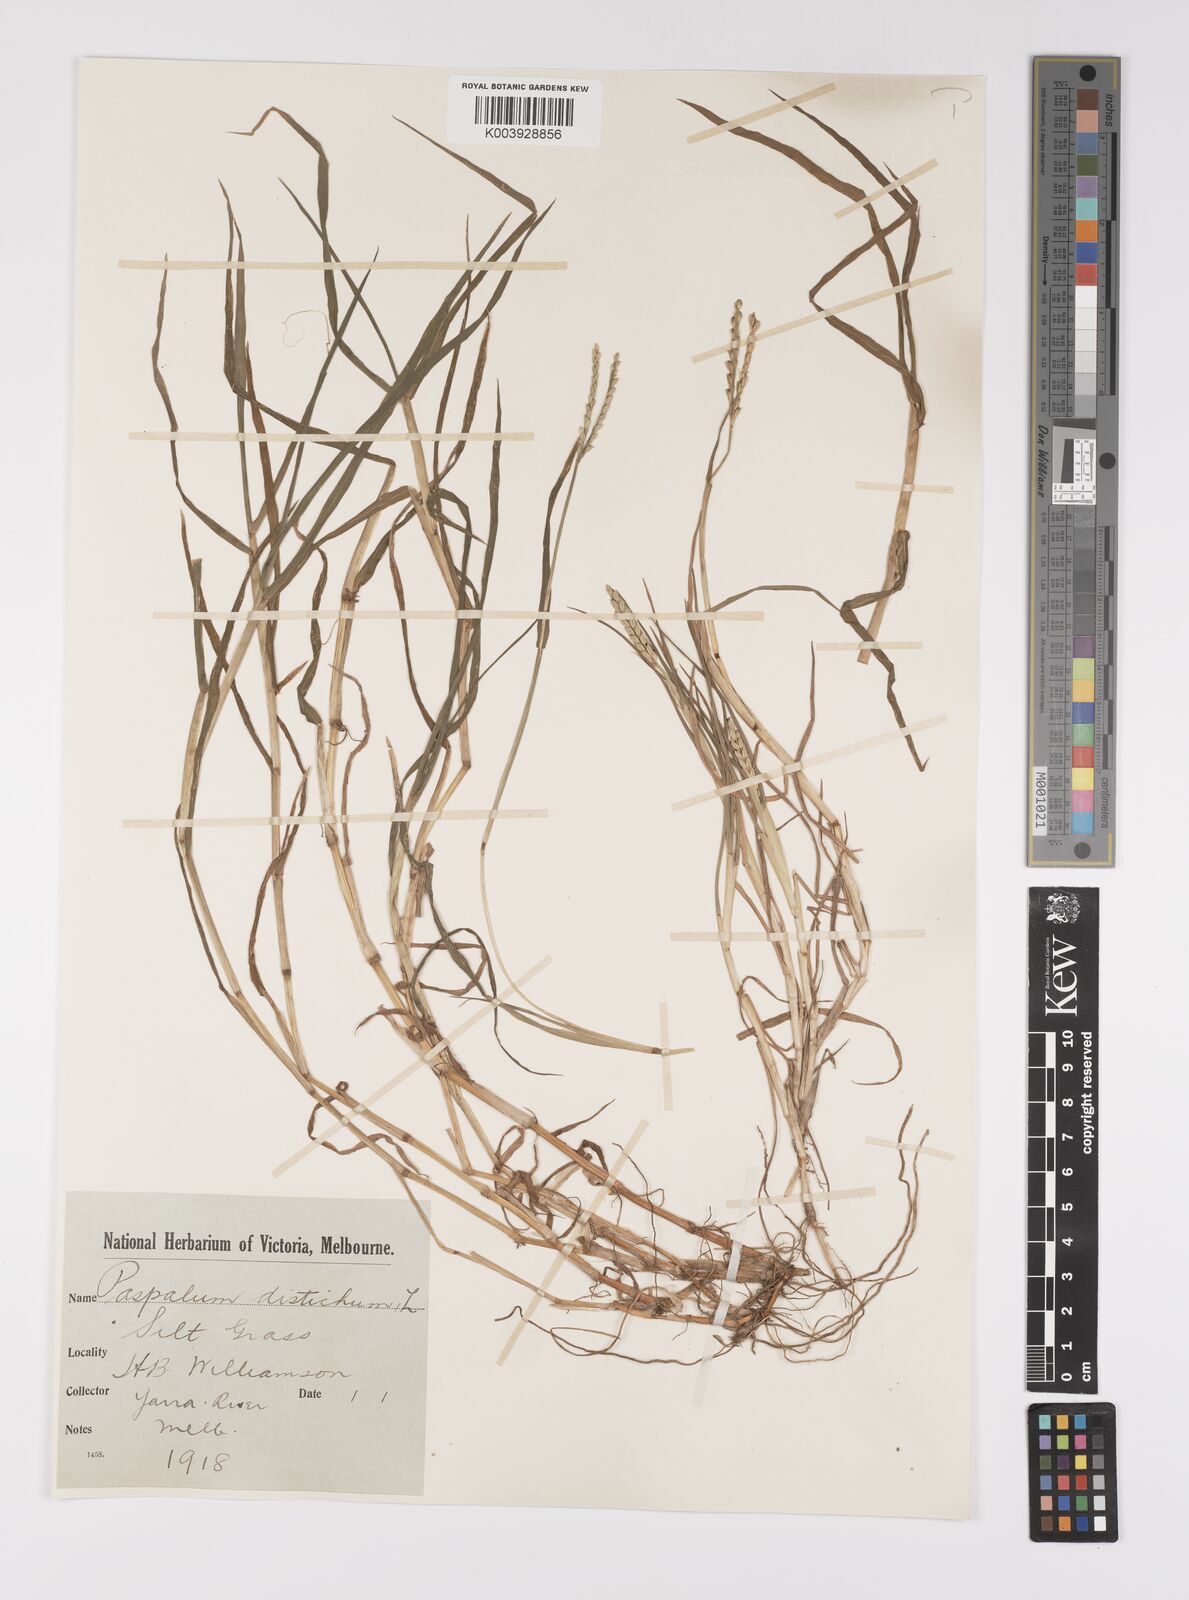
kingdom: Plantae
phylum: Tracheophyta
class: Liliopsida
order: Poales
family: Poaceae
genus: Paspalum
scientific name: Paspalum distichum
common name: Knotgrass
